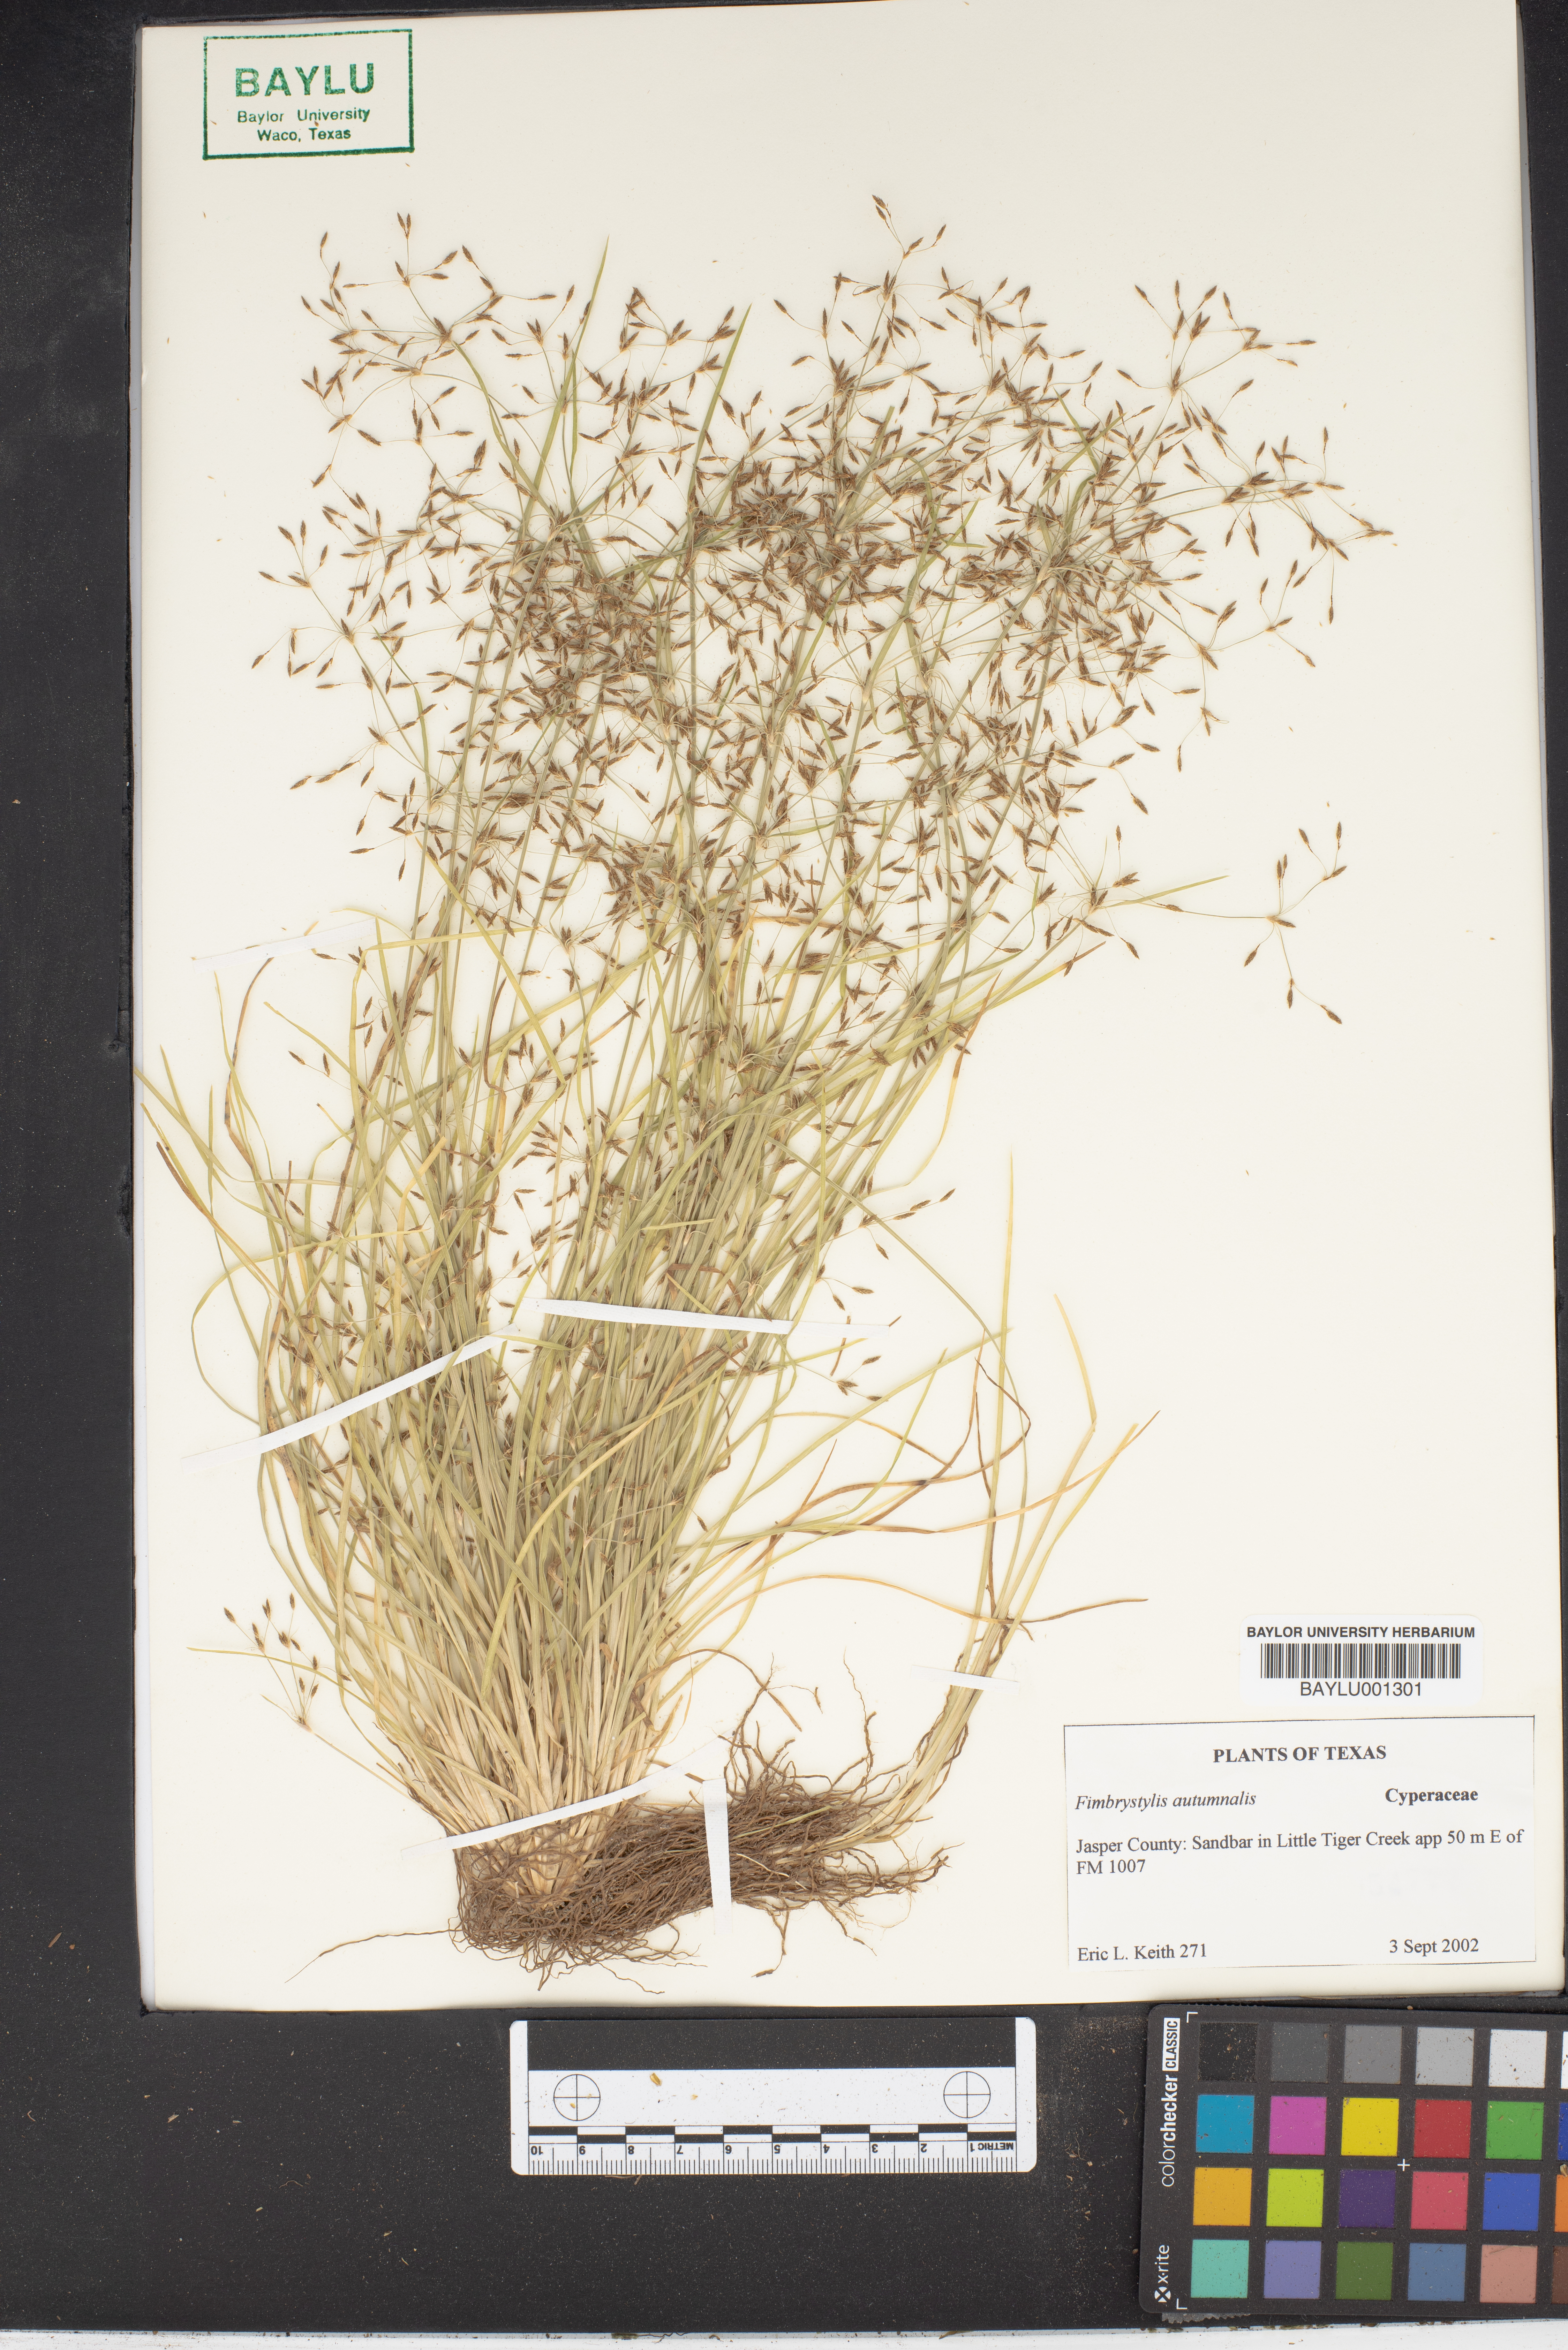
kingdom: Plantae
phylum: Tracheophyta
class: Liliopsida
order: Poales
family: Cyperaceae
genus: Fimbristylis
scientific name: Fimbristylis autumnalis
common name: Slender fimbristylis
